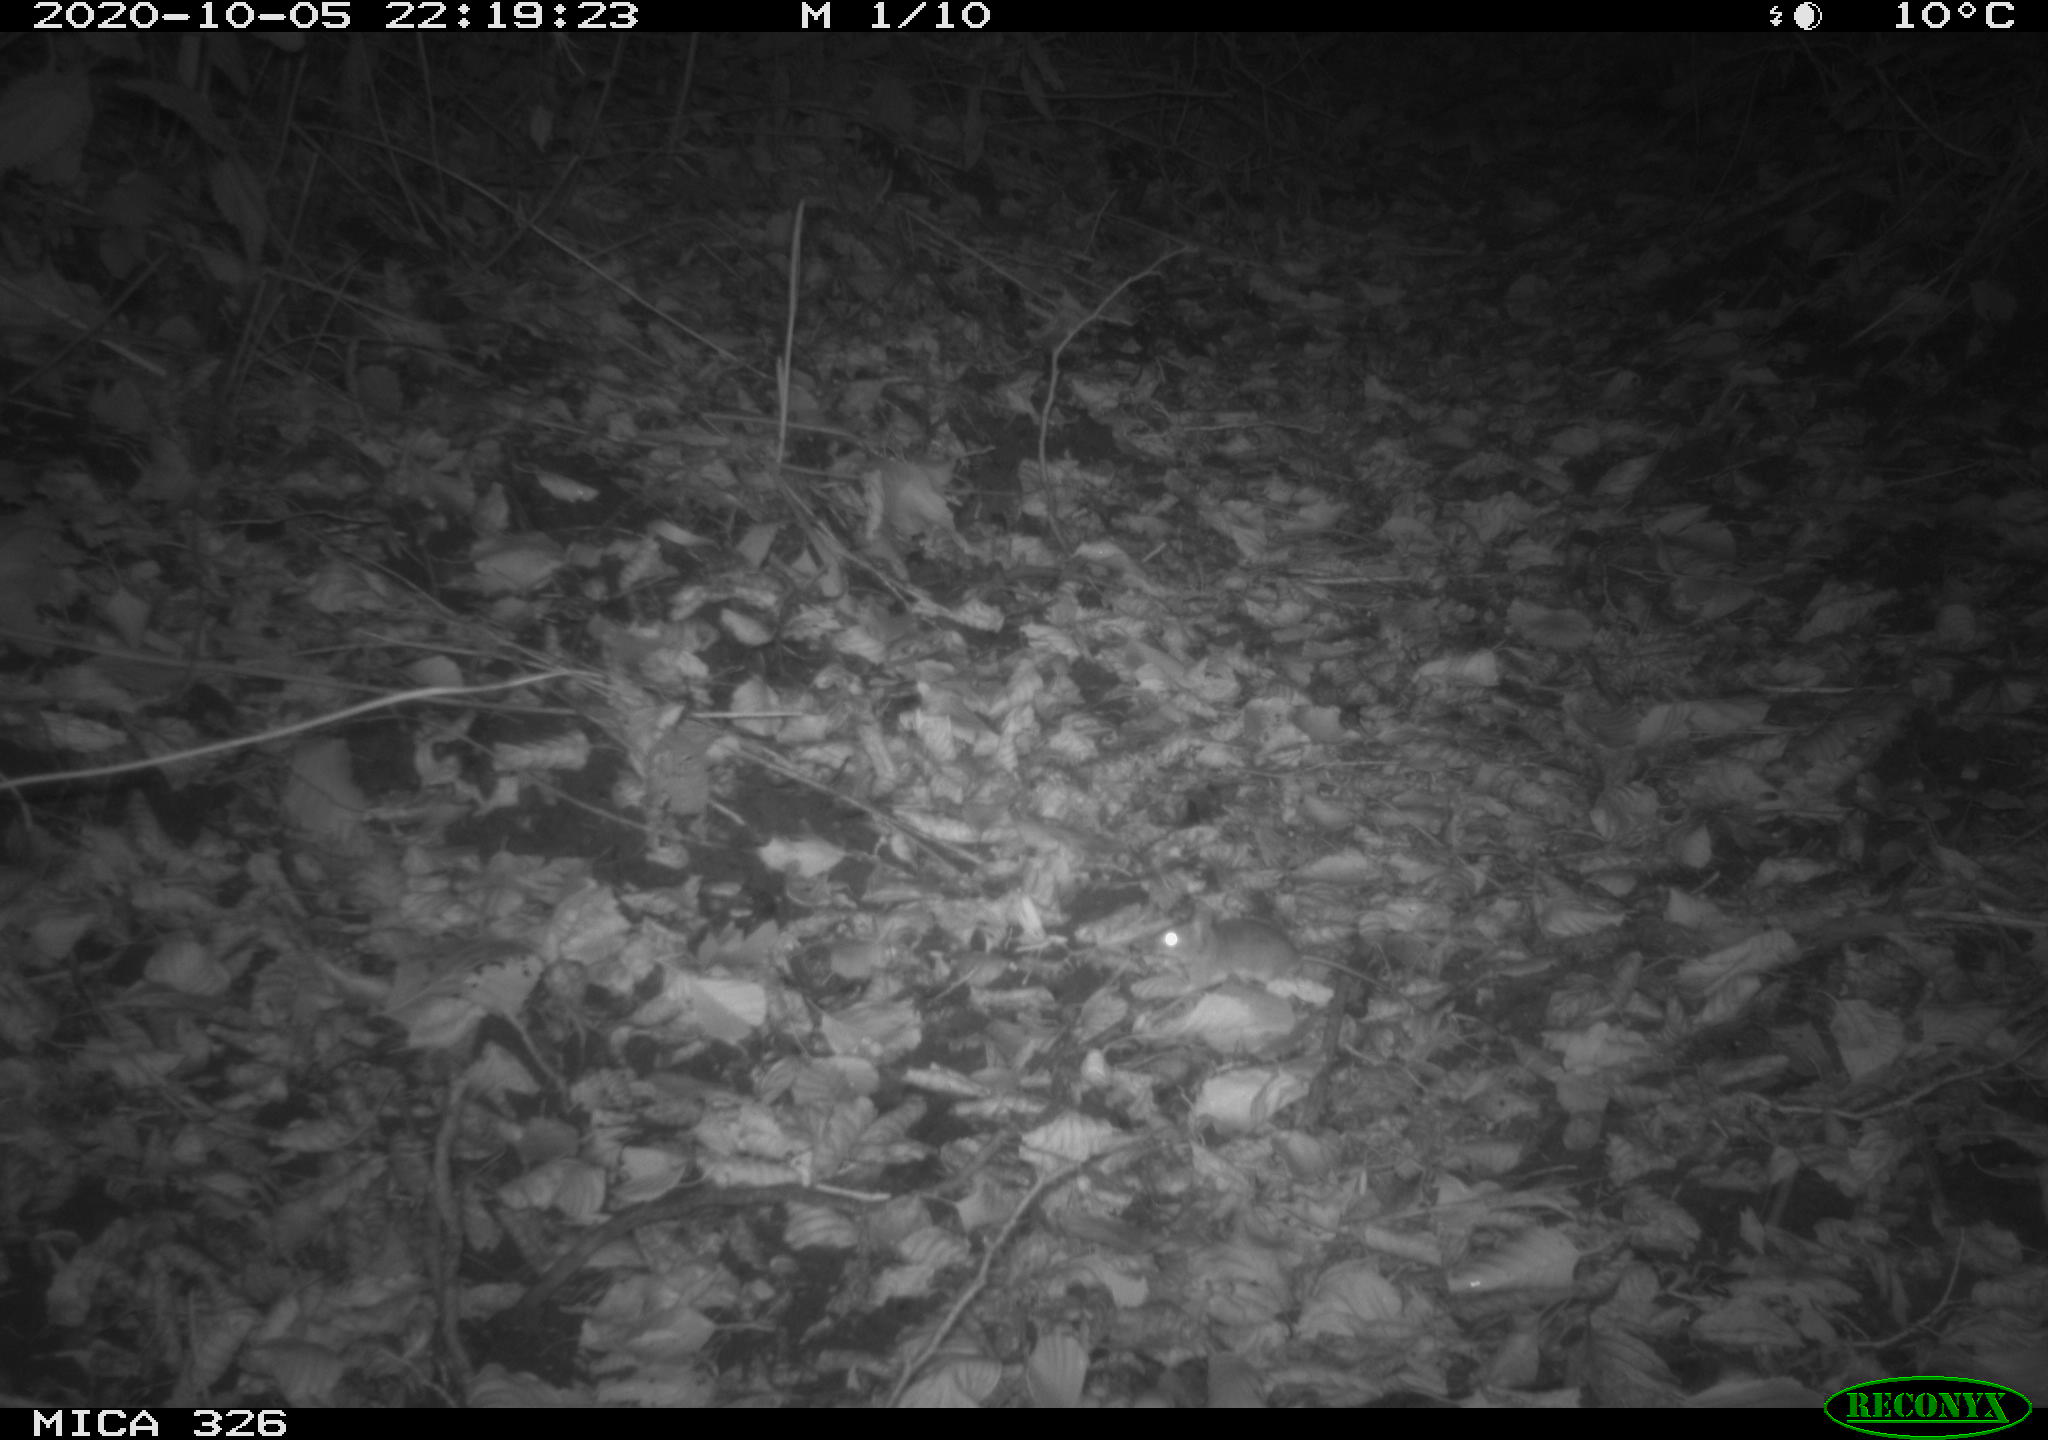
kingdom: Animalia
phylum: Chordata
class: Mammalia
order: Rodentia
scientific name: Rodentia
